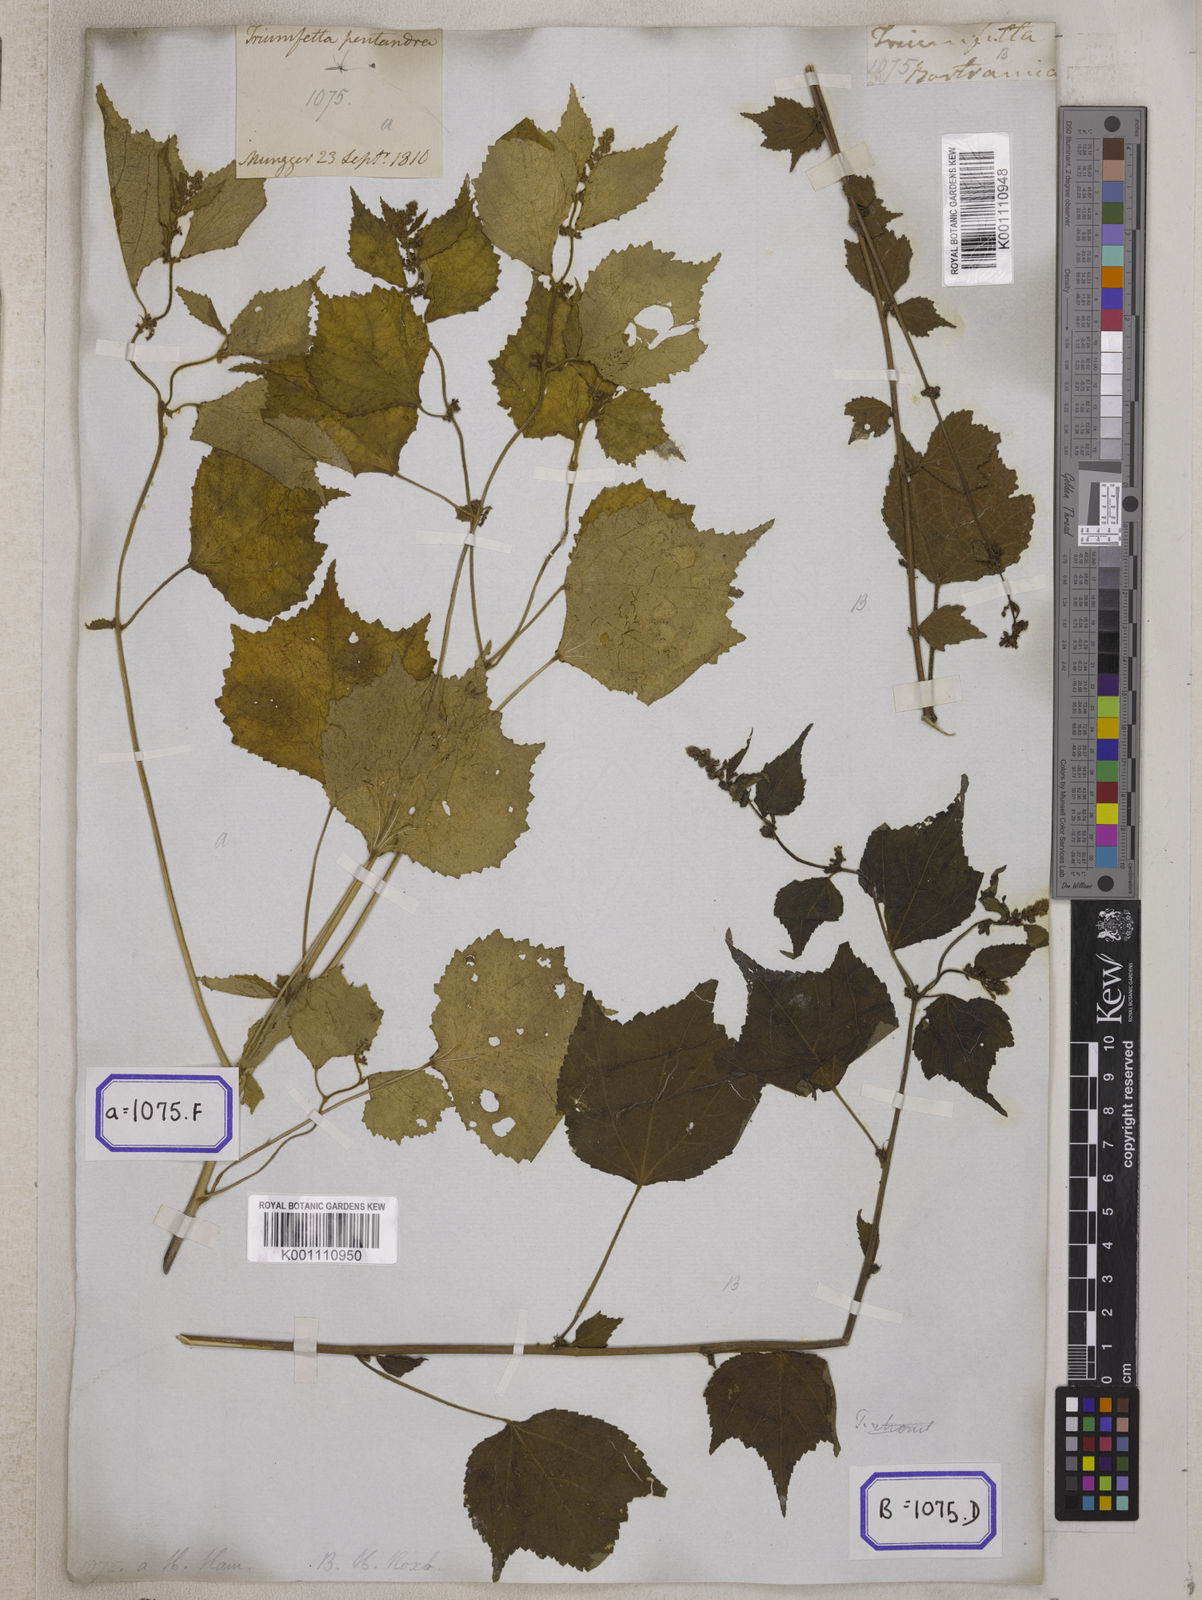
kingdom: Plantae
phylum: Tracheophyta
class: Magnoliopsida
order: Malvales
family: Malvaceae
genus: Triumfetta
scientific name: Triumfetta rhomboidea
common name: Diamond burbark
